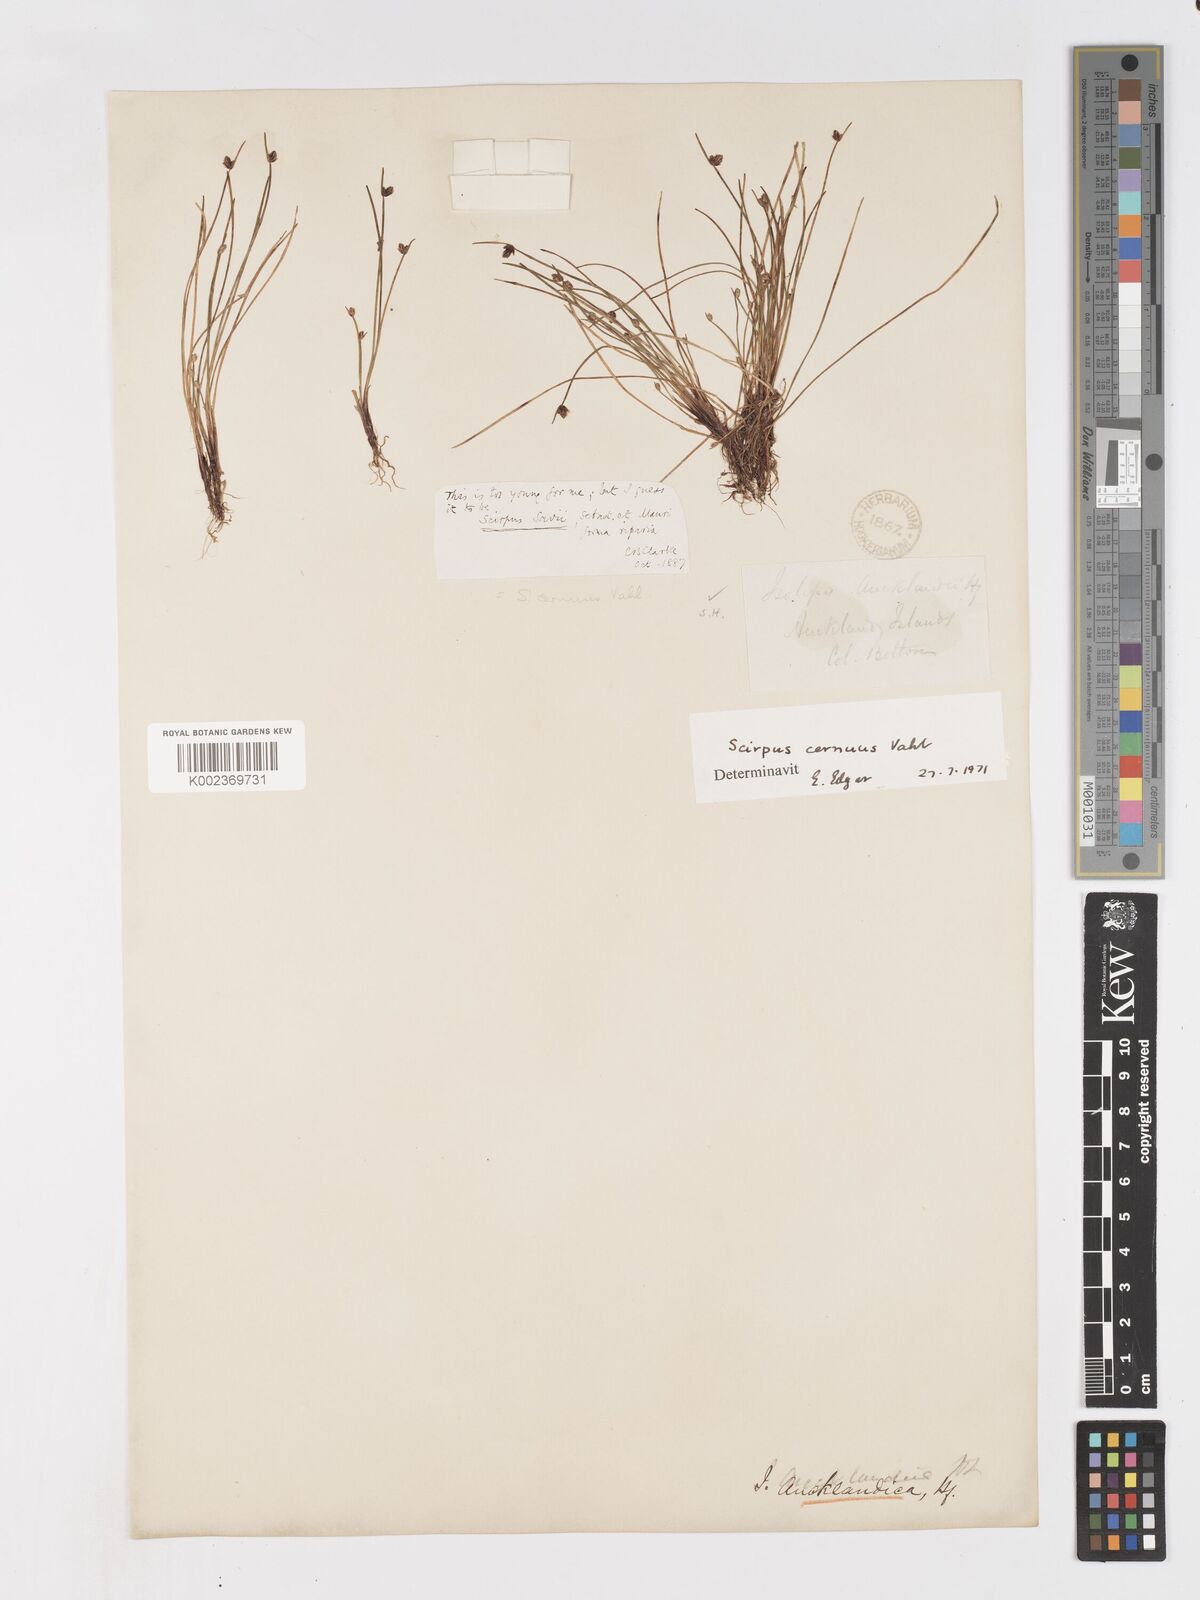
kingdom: Plantae
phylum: Tracheophyta
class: Liliopsida
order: Poales
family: Cyperaceae
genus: Isolepis
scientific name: Isolepis cernua
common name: Slender club-rush
